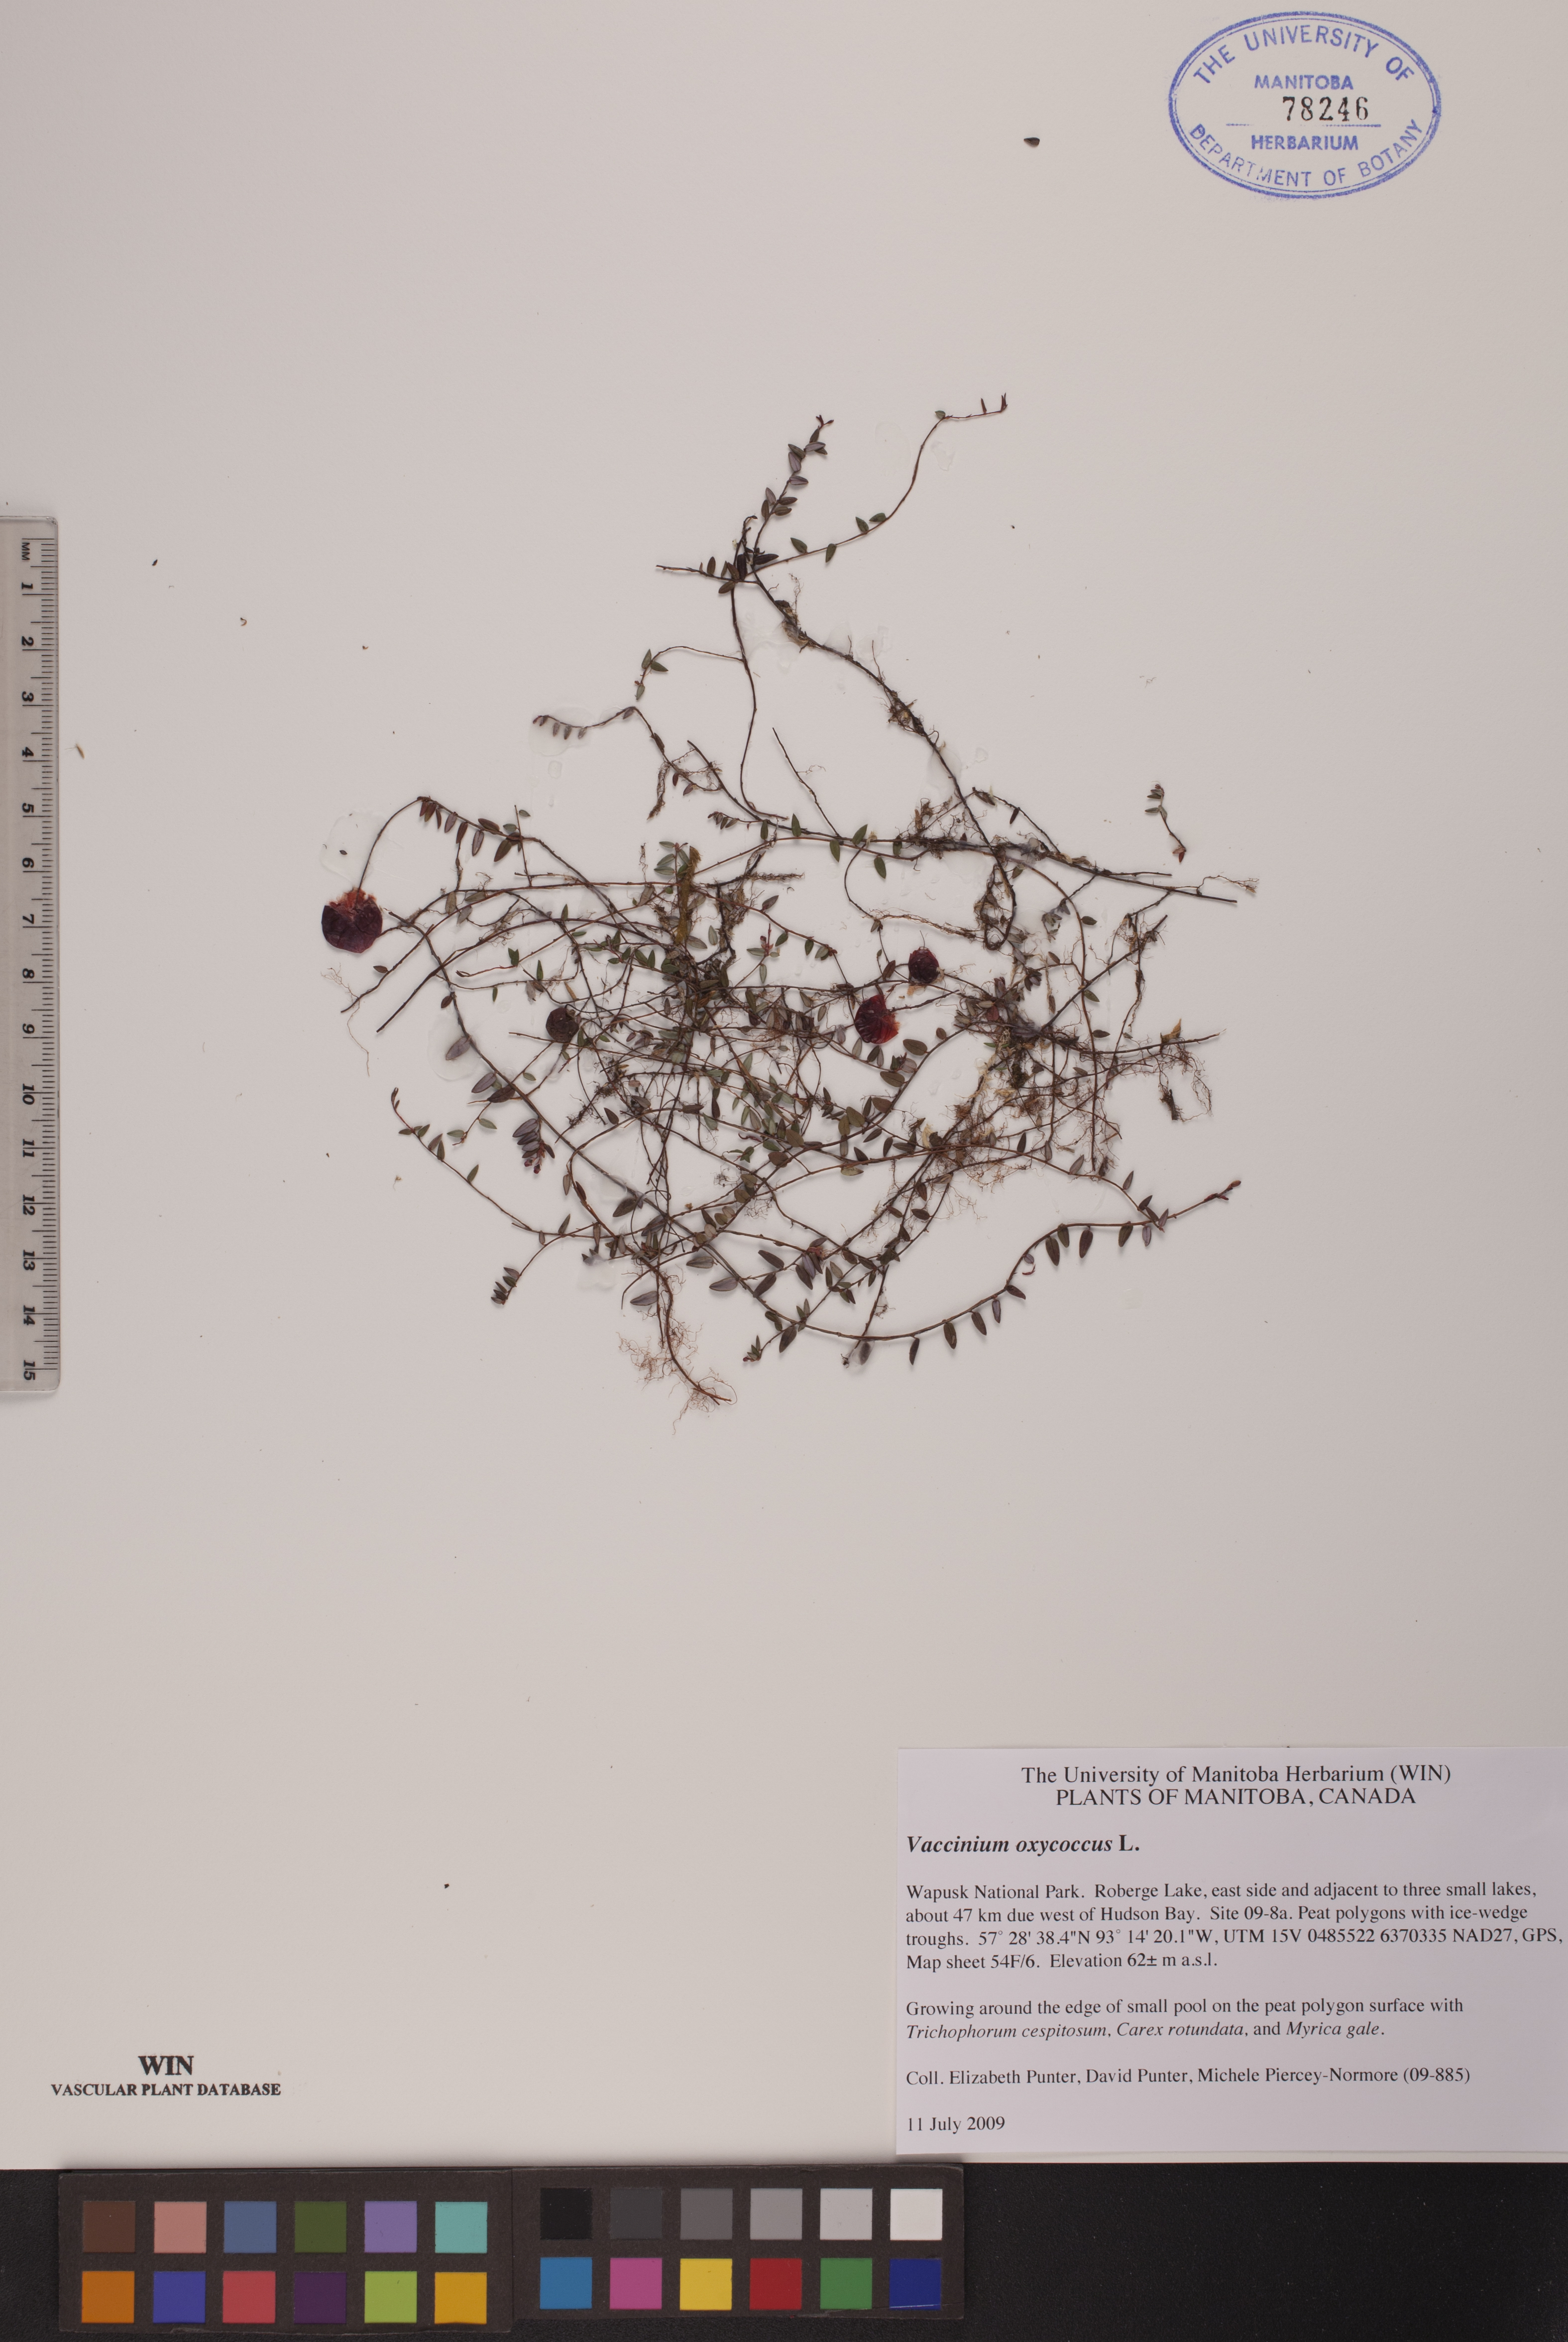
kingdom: Plantae
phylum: Tracheophyta
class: Magnoliopsida
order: Ericales
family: Ericaceae
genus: Vaccinium
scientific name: Vaccinium oxycoccos
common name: Cranberry
